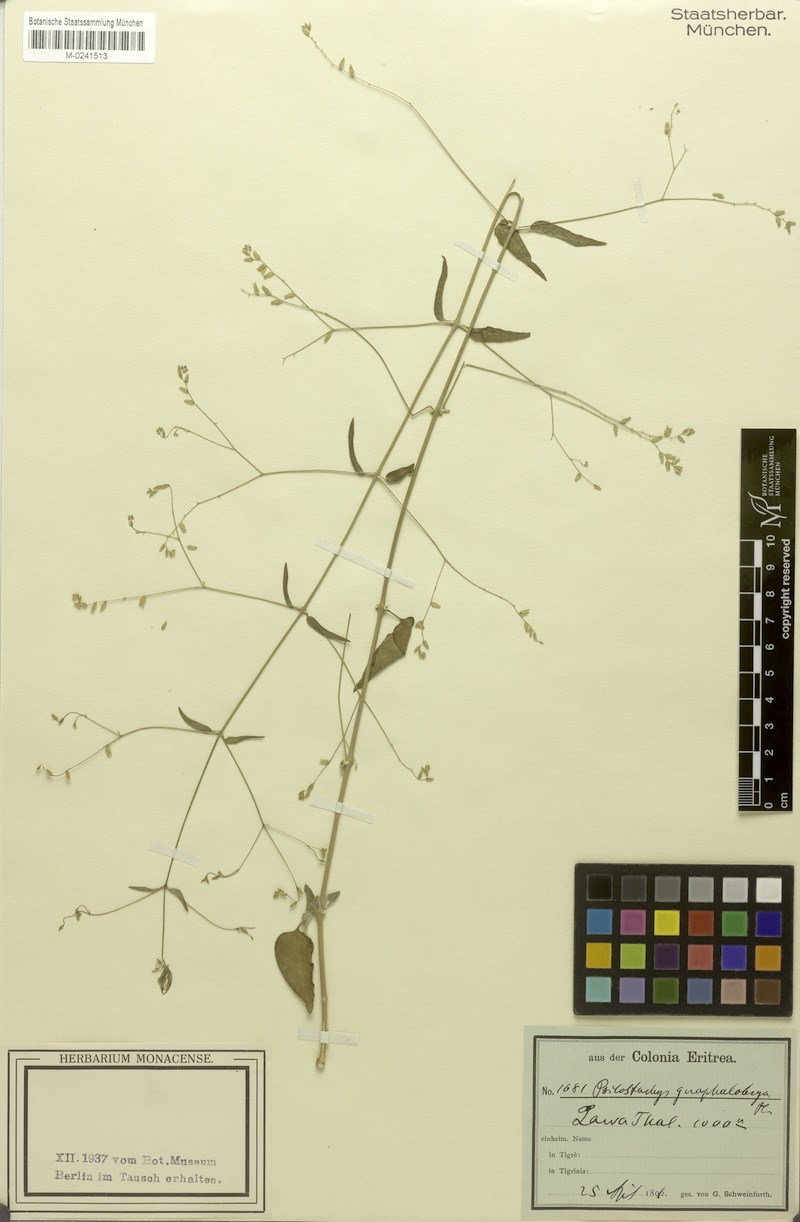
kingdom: Plantae
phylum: Tracheophyta
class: Magnoliopsida
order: Caryophyllales
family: Amaranthaceae
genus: Psilotrichum
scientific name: Psilotrichum gnaphalobryum
